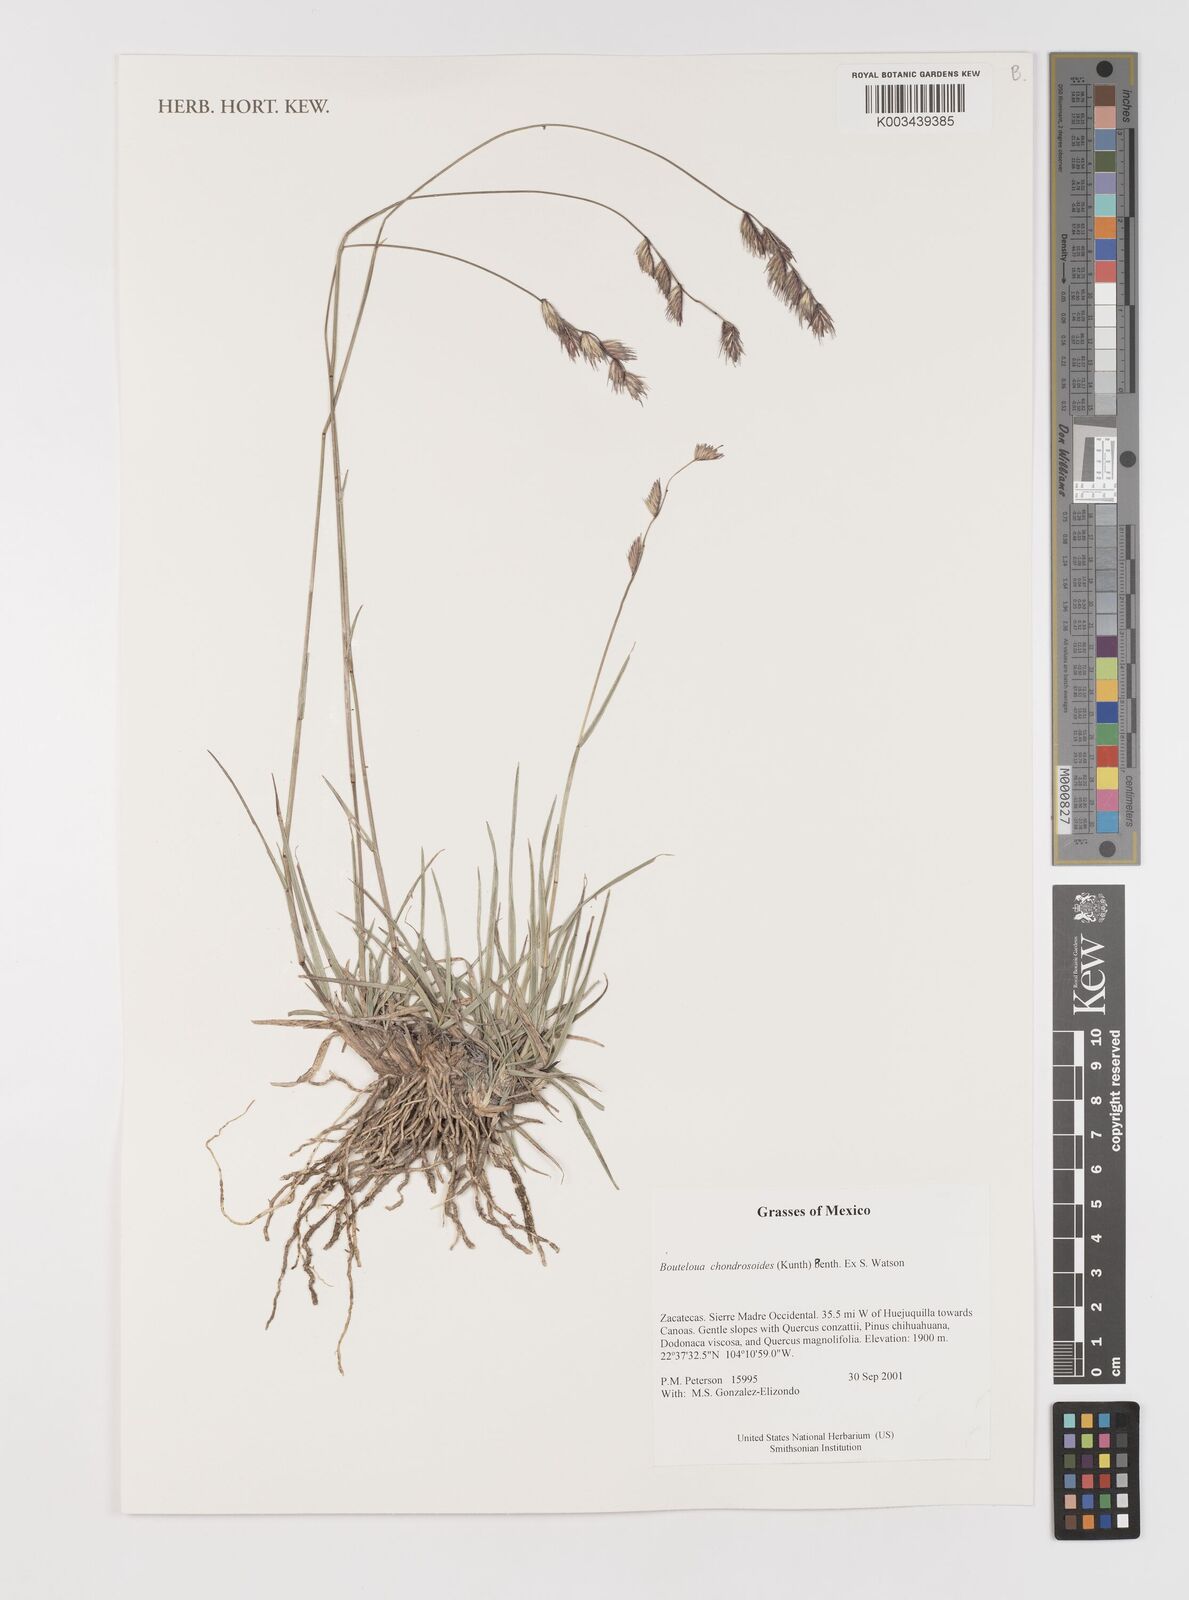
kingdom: Plantae
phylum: Tracheophyta
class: Liliopsida
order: Poales
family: Poaceae
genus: Bouteloua
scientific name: Bouteloua chondrosioides
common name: Sprucetop grama
